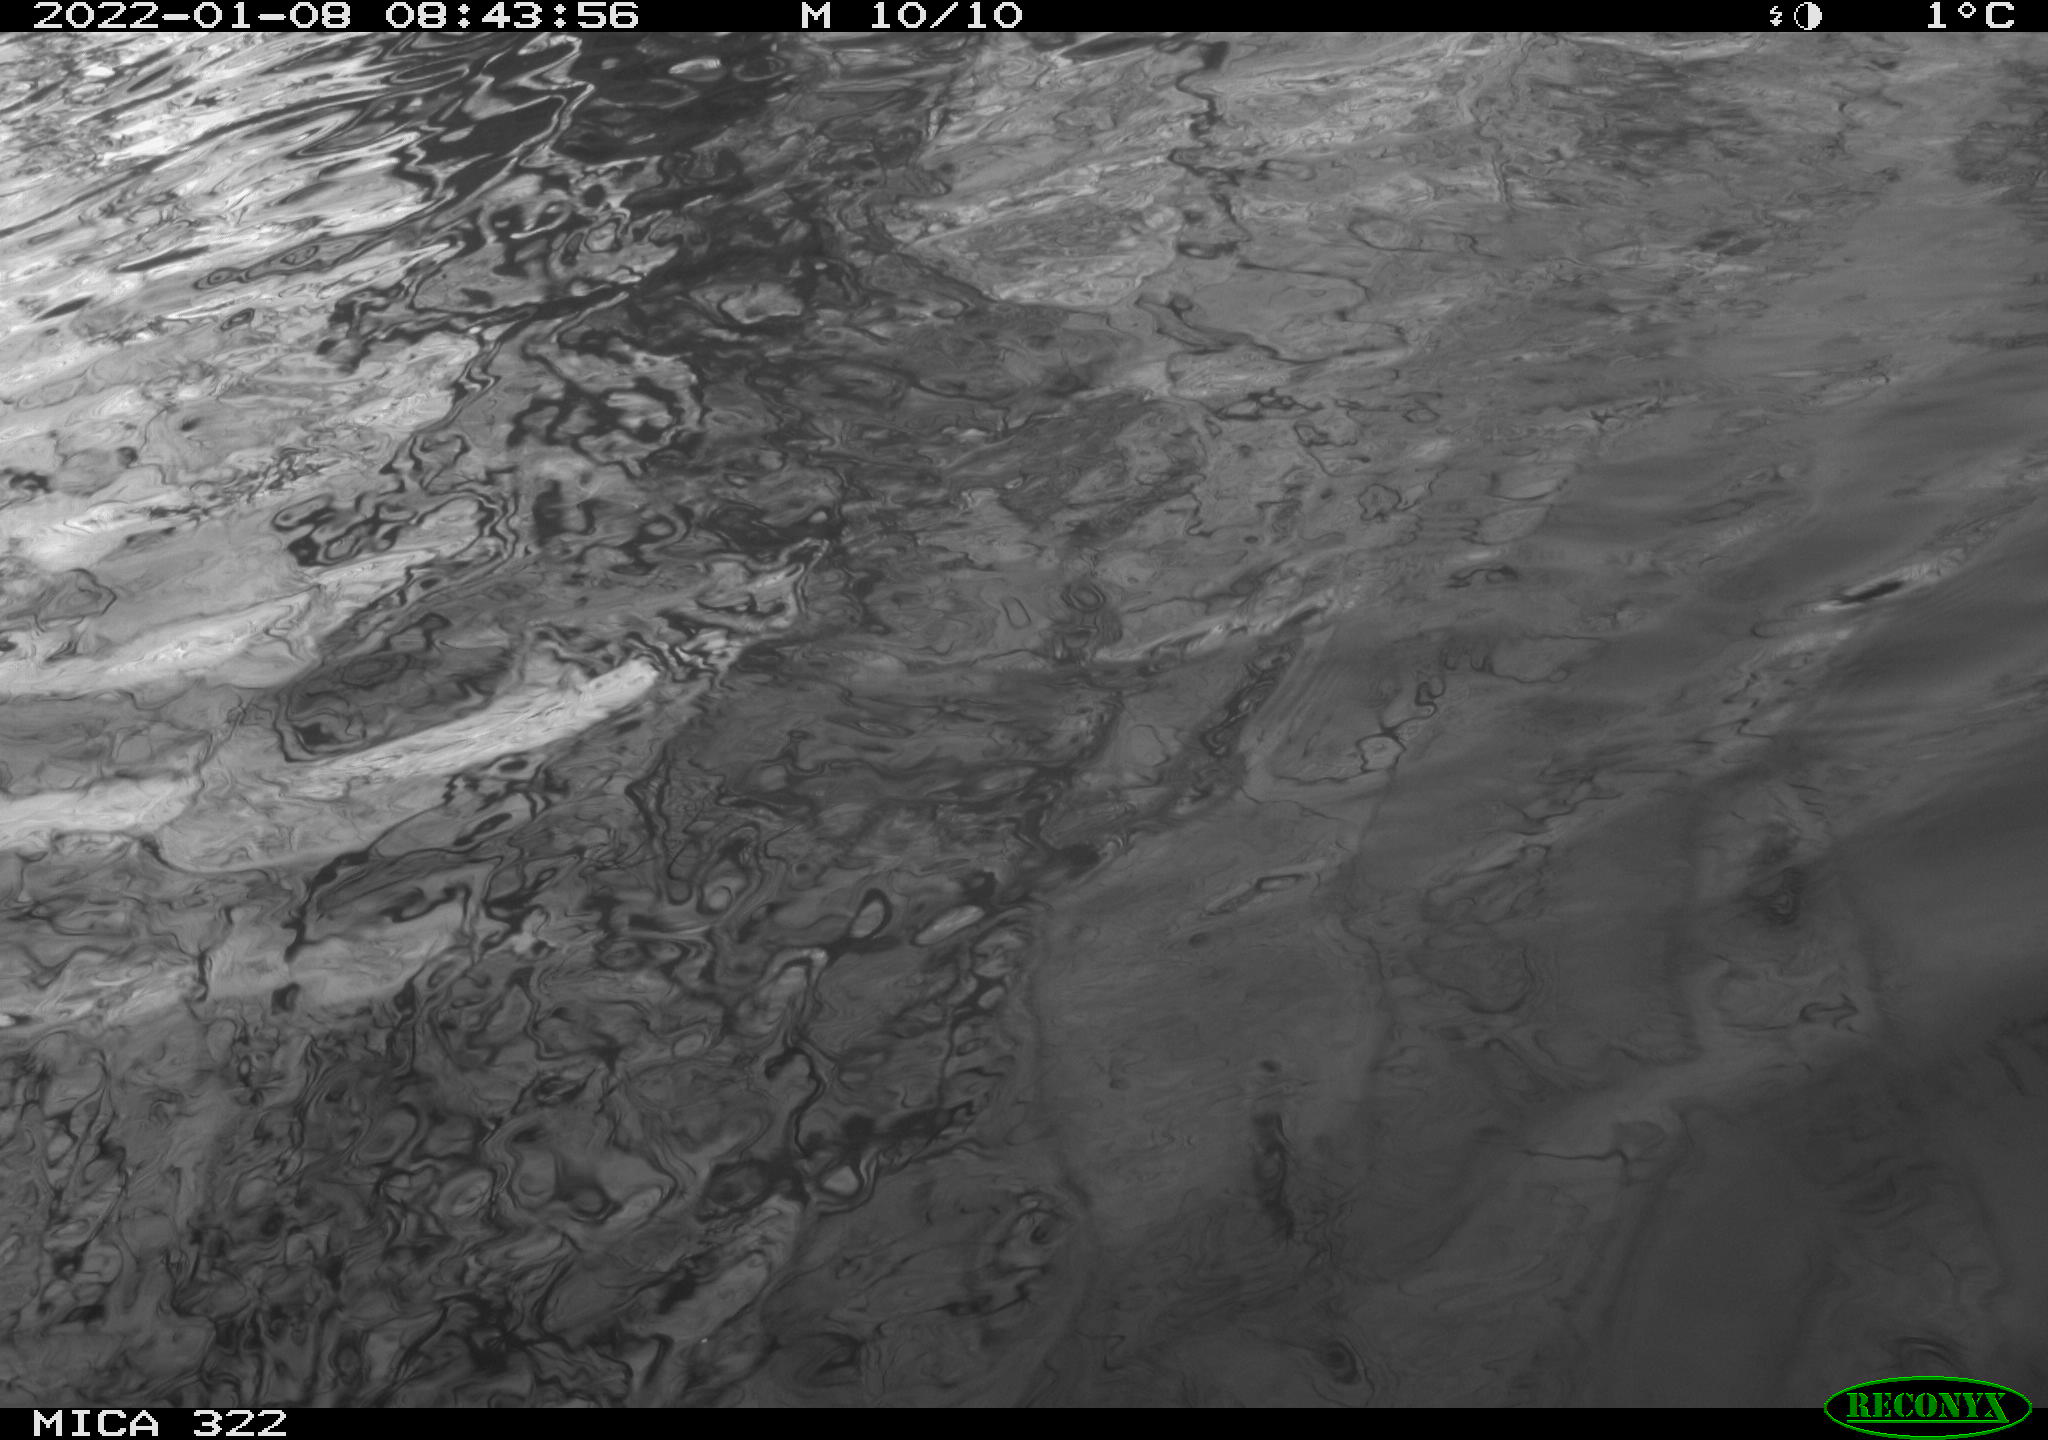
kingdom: Animalia
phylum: Chordata
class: Aves
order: Anseriformes
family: Anatidae
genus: Anas
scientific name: Anas
